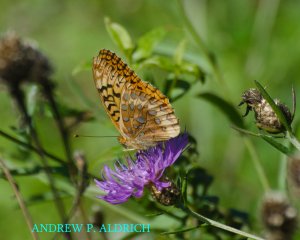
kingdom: Animalia
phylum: Arthropoda
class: Insecta
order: Lepidoptera
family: Nymphalidae
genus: Speyeria
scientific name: Speyeria cybele
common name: Great Spangled Fritillary
